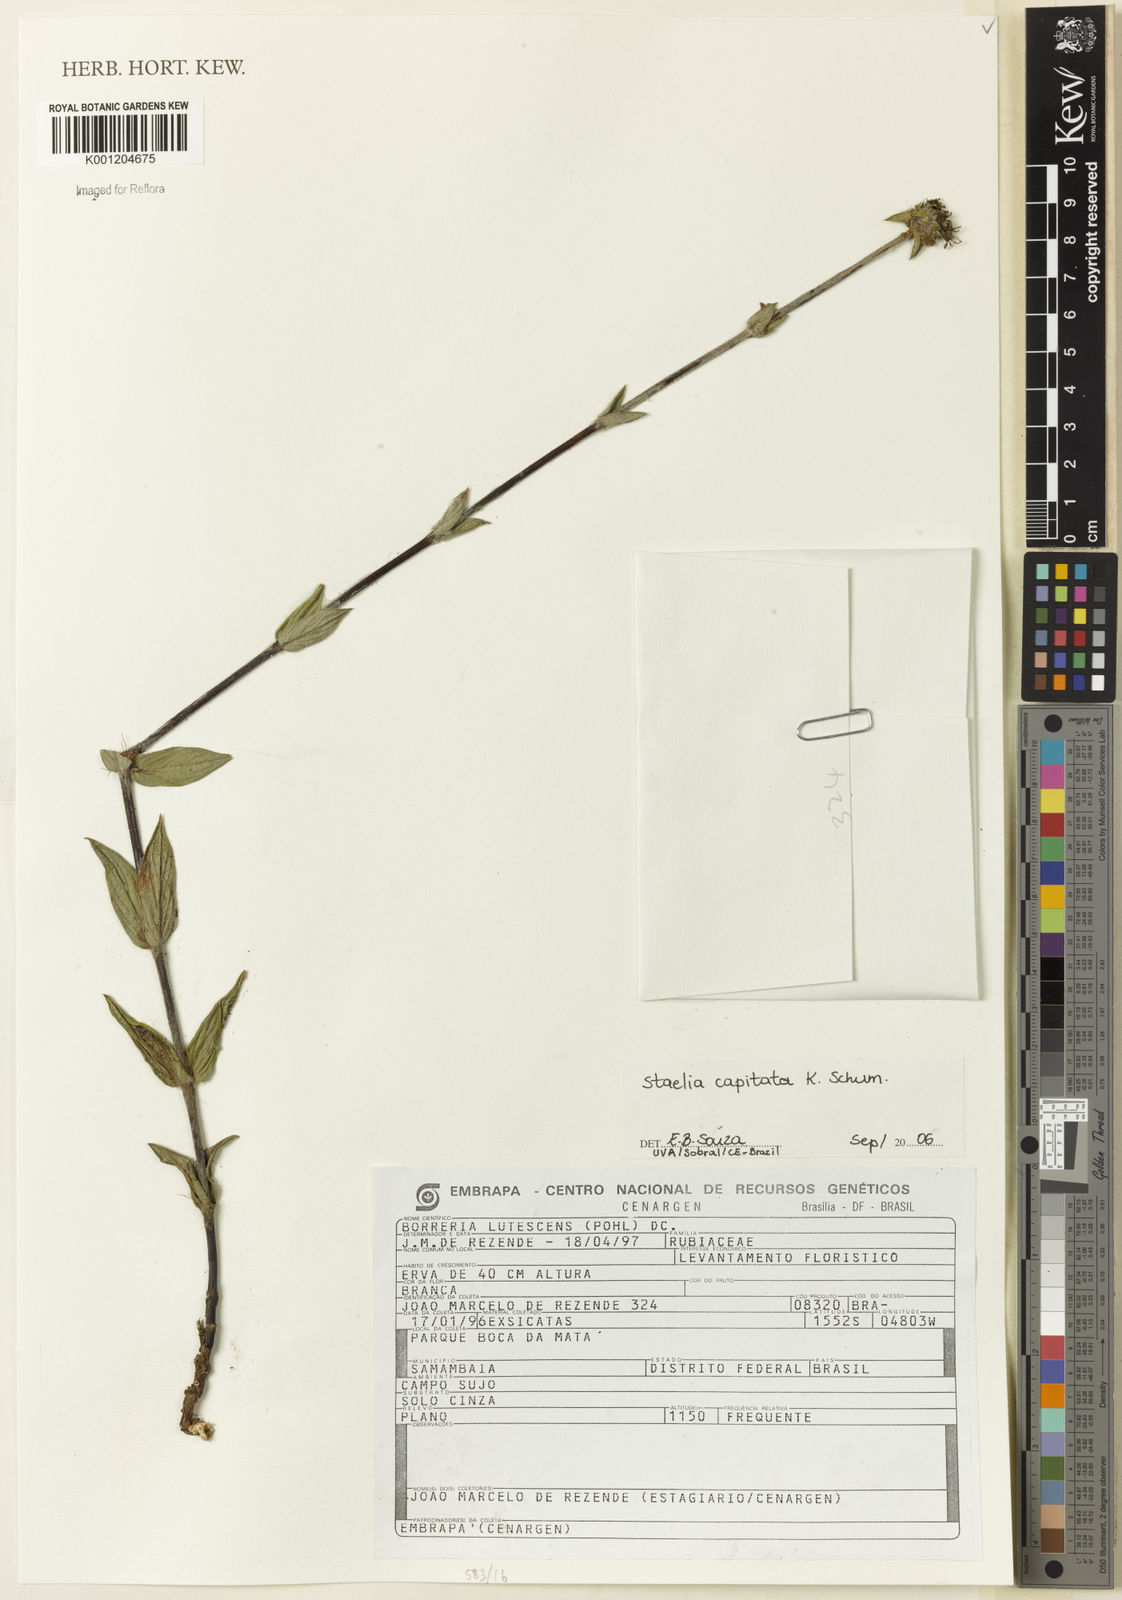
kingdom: Plantae
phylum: Tracheophyta
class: Magnoliopsida
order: Gentianales
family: Rubiaceae
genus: Planaltina
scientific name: Planaltina capitata
